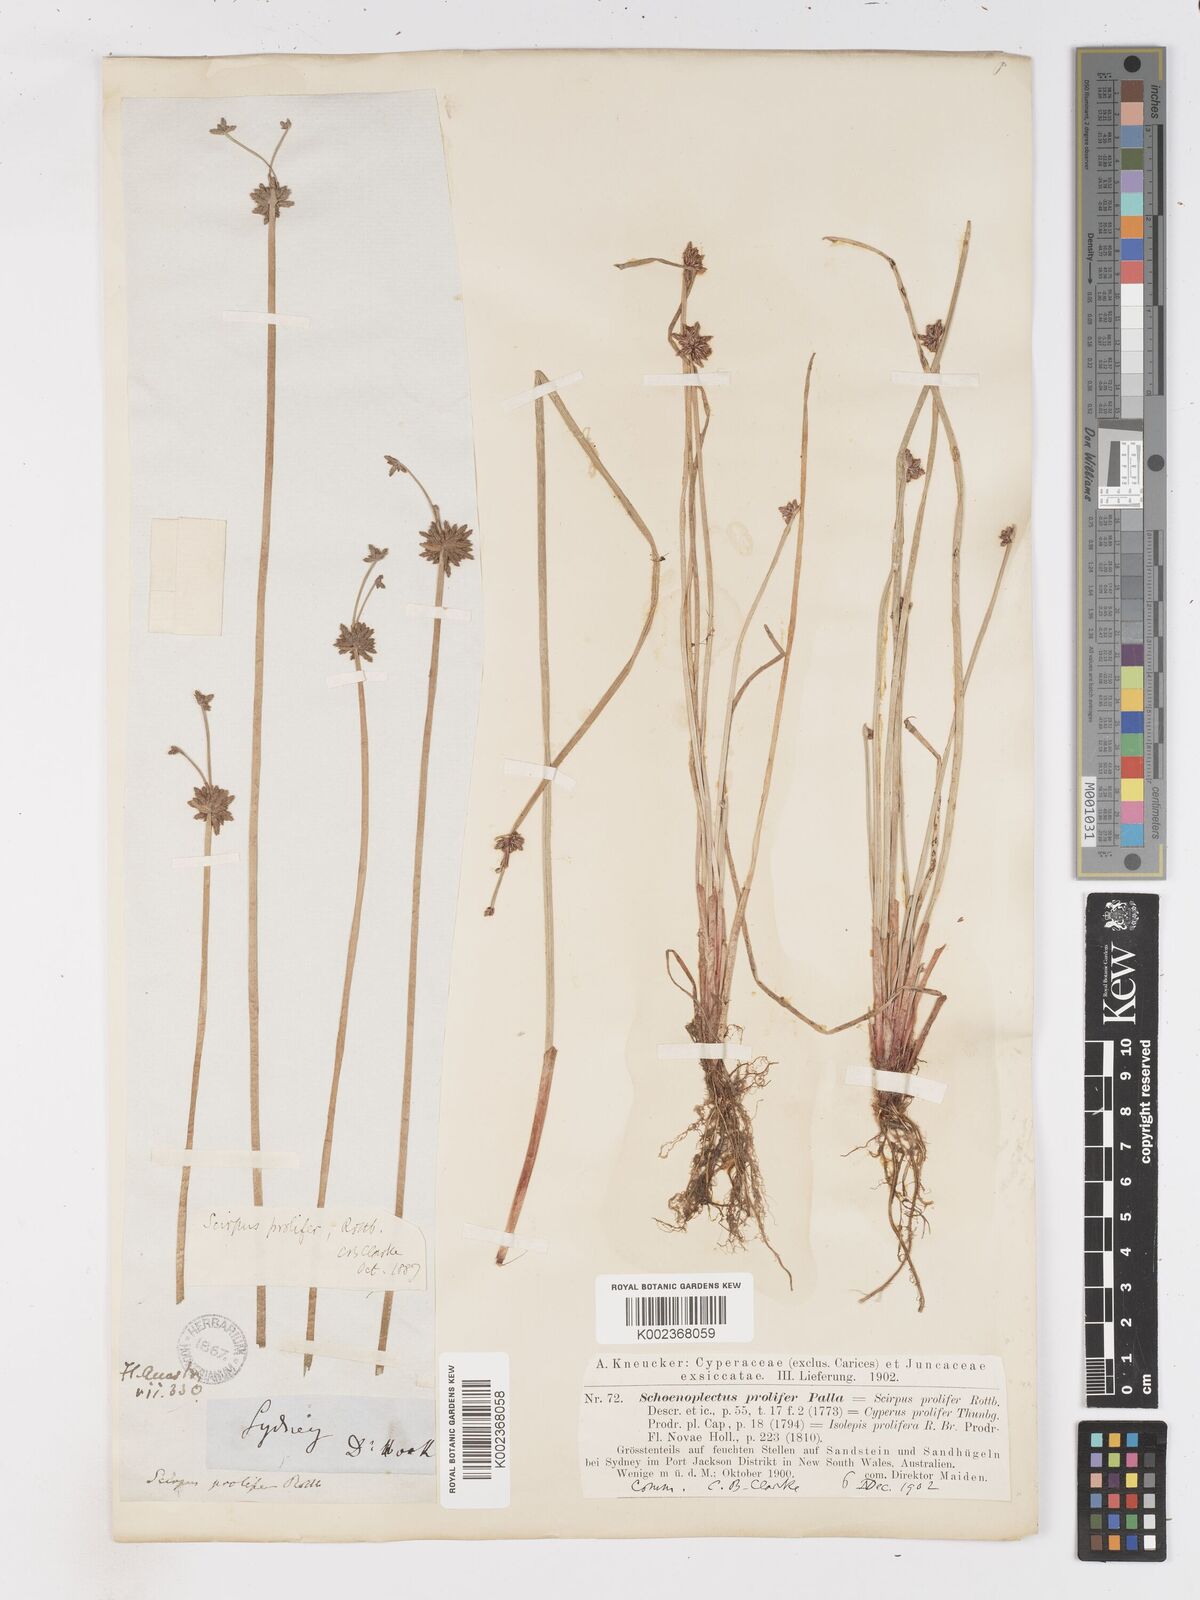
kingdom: Plantae
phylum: Tracheophyta
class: Liliopsida
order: Poales
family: Cyperaceae
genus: Isolepis
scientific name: Isolepis prolifera
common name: Proliferating bulrush
